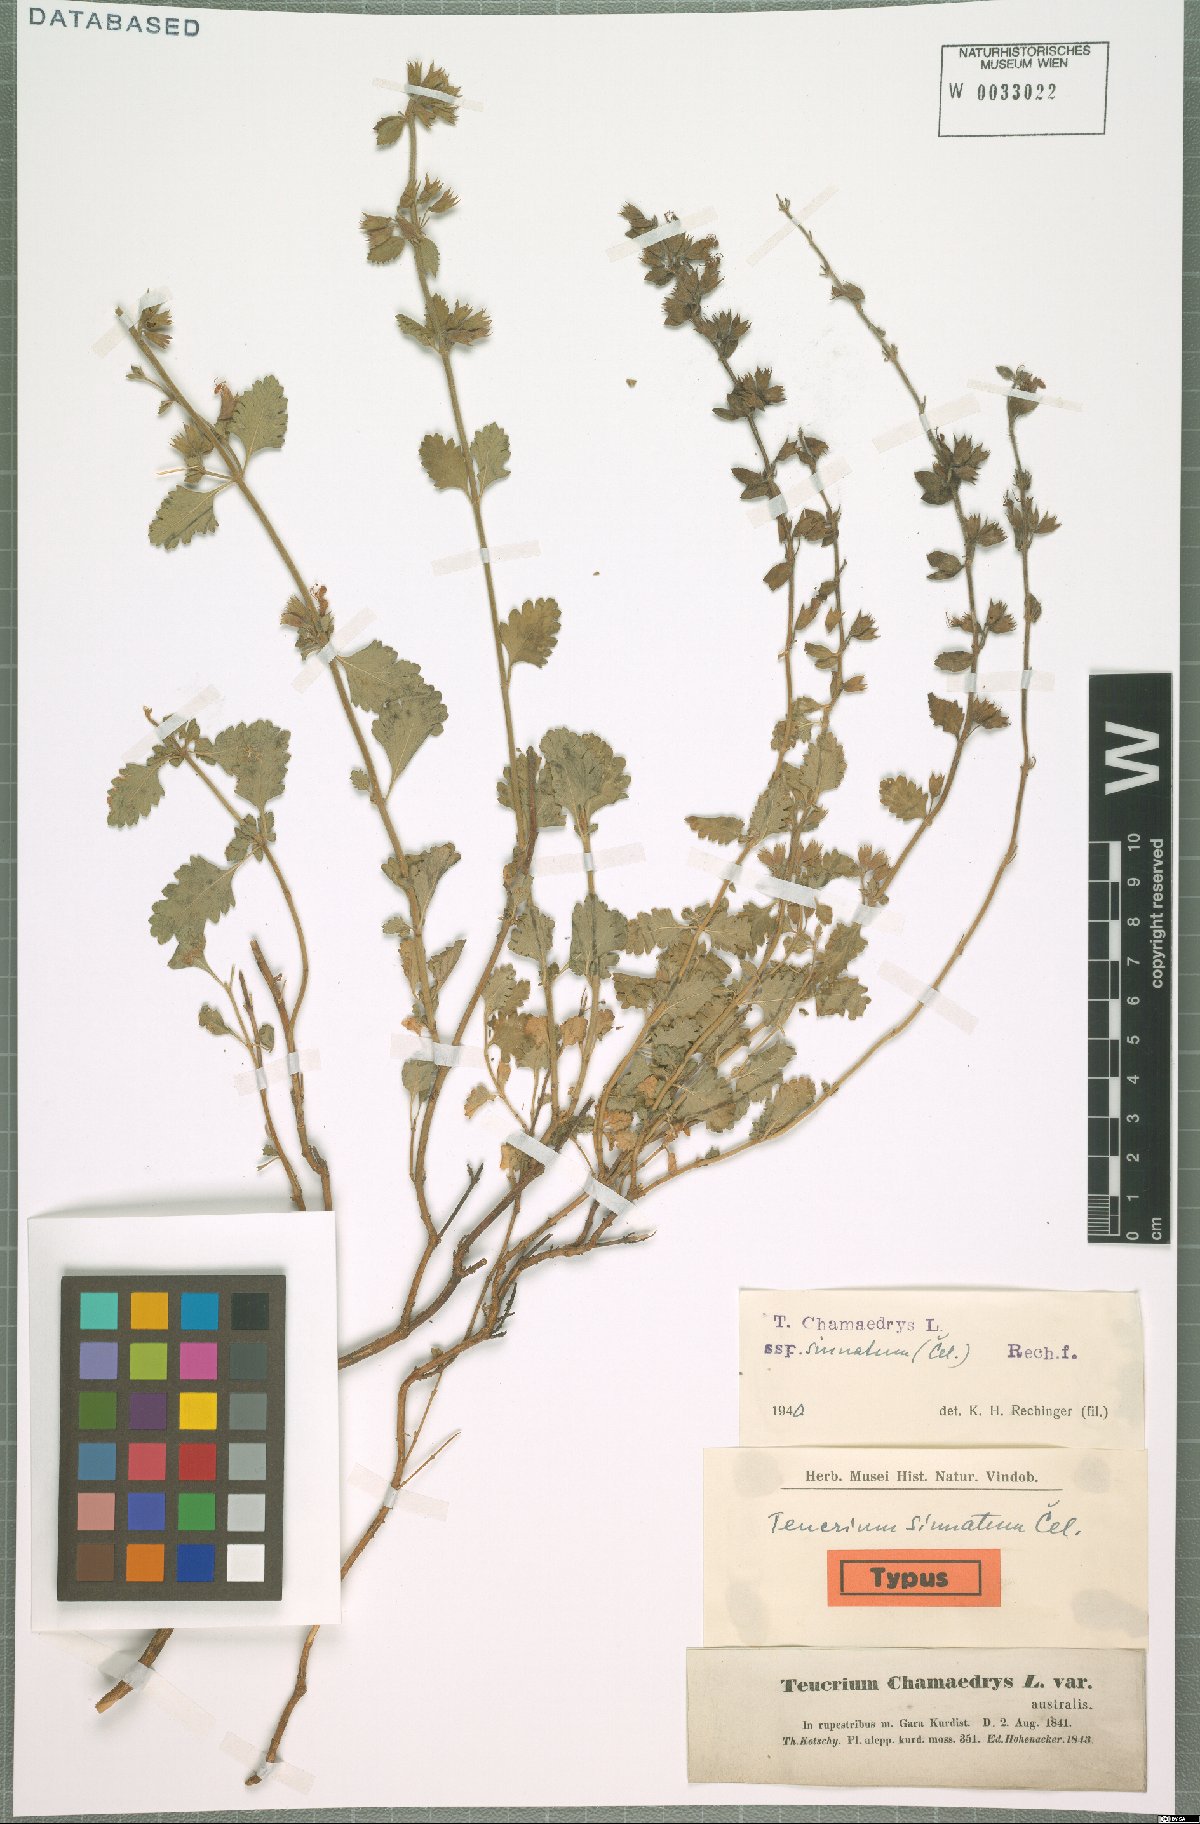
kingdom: Plantae
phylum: Tracheophyta
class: Magnoliopsida
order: Lamiales
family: Lamiaceae
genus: Teucrium
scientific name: Teucrium chamaedrys
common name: Wall germander
